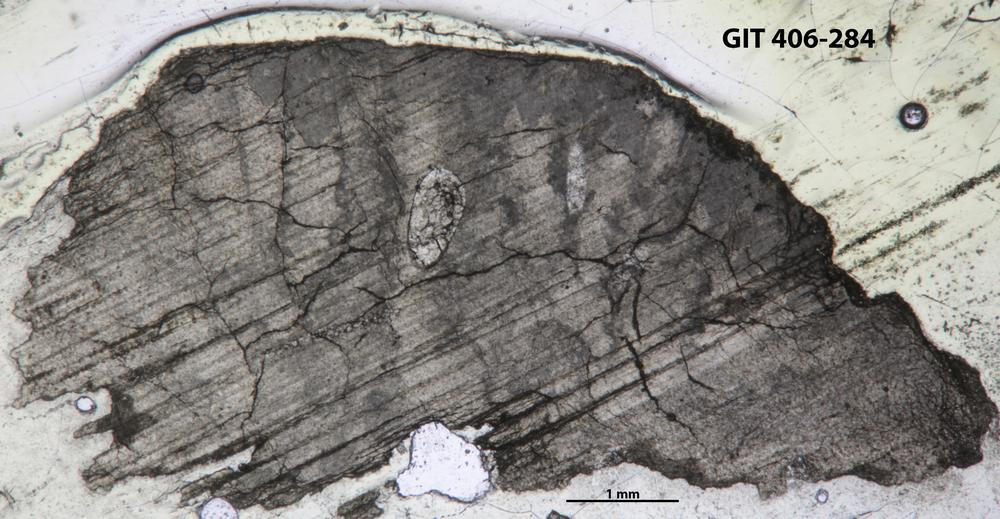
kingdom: Animalia
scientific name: Animalia
